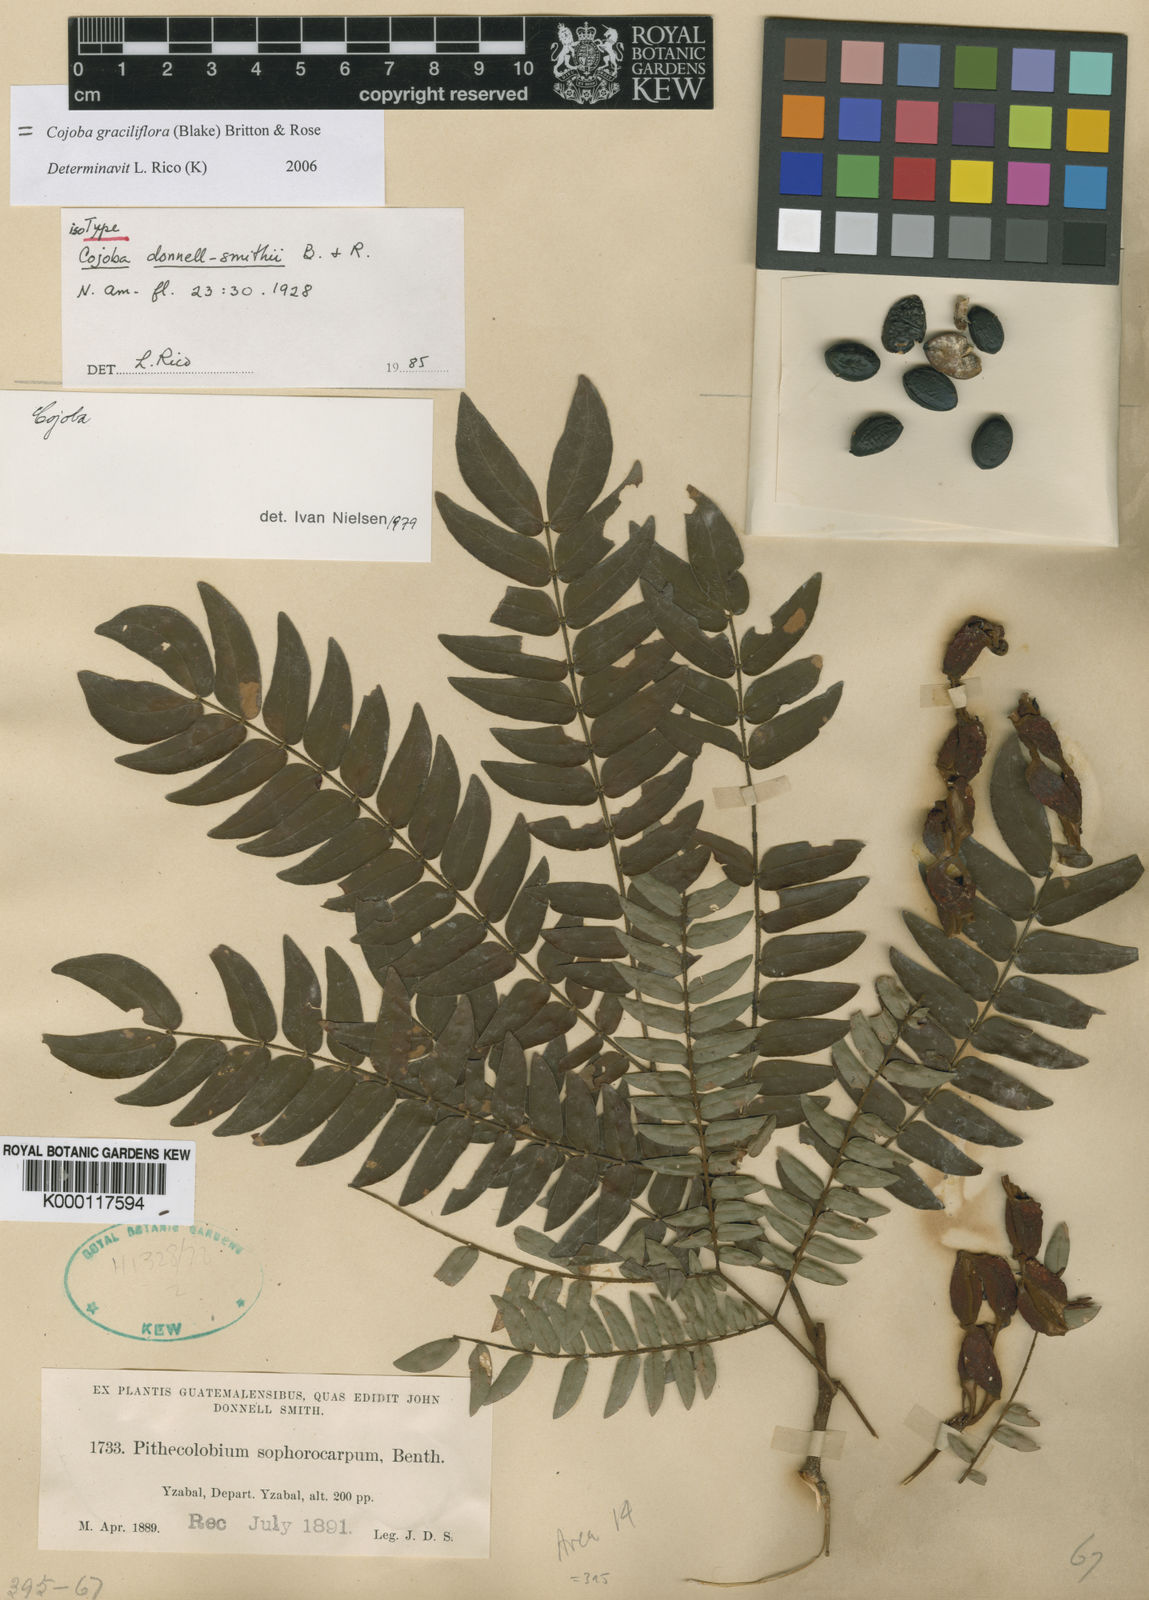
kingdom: Plantae
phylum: Tracheophyta
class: Magnoliopsida
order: Fabales
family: Fabaceae
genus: Cojoba
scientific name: Cojoba graciliflora
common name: Guadeloupe blackbead
